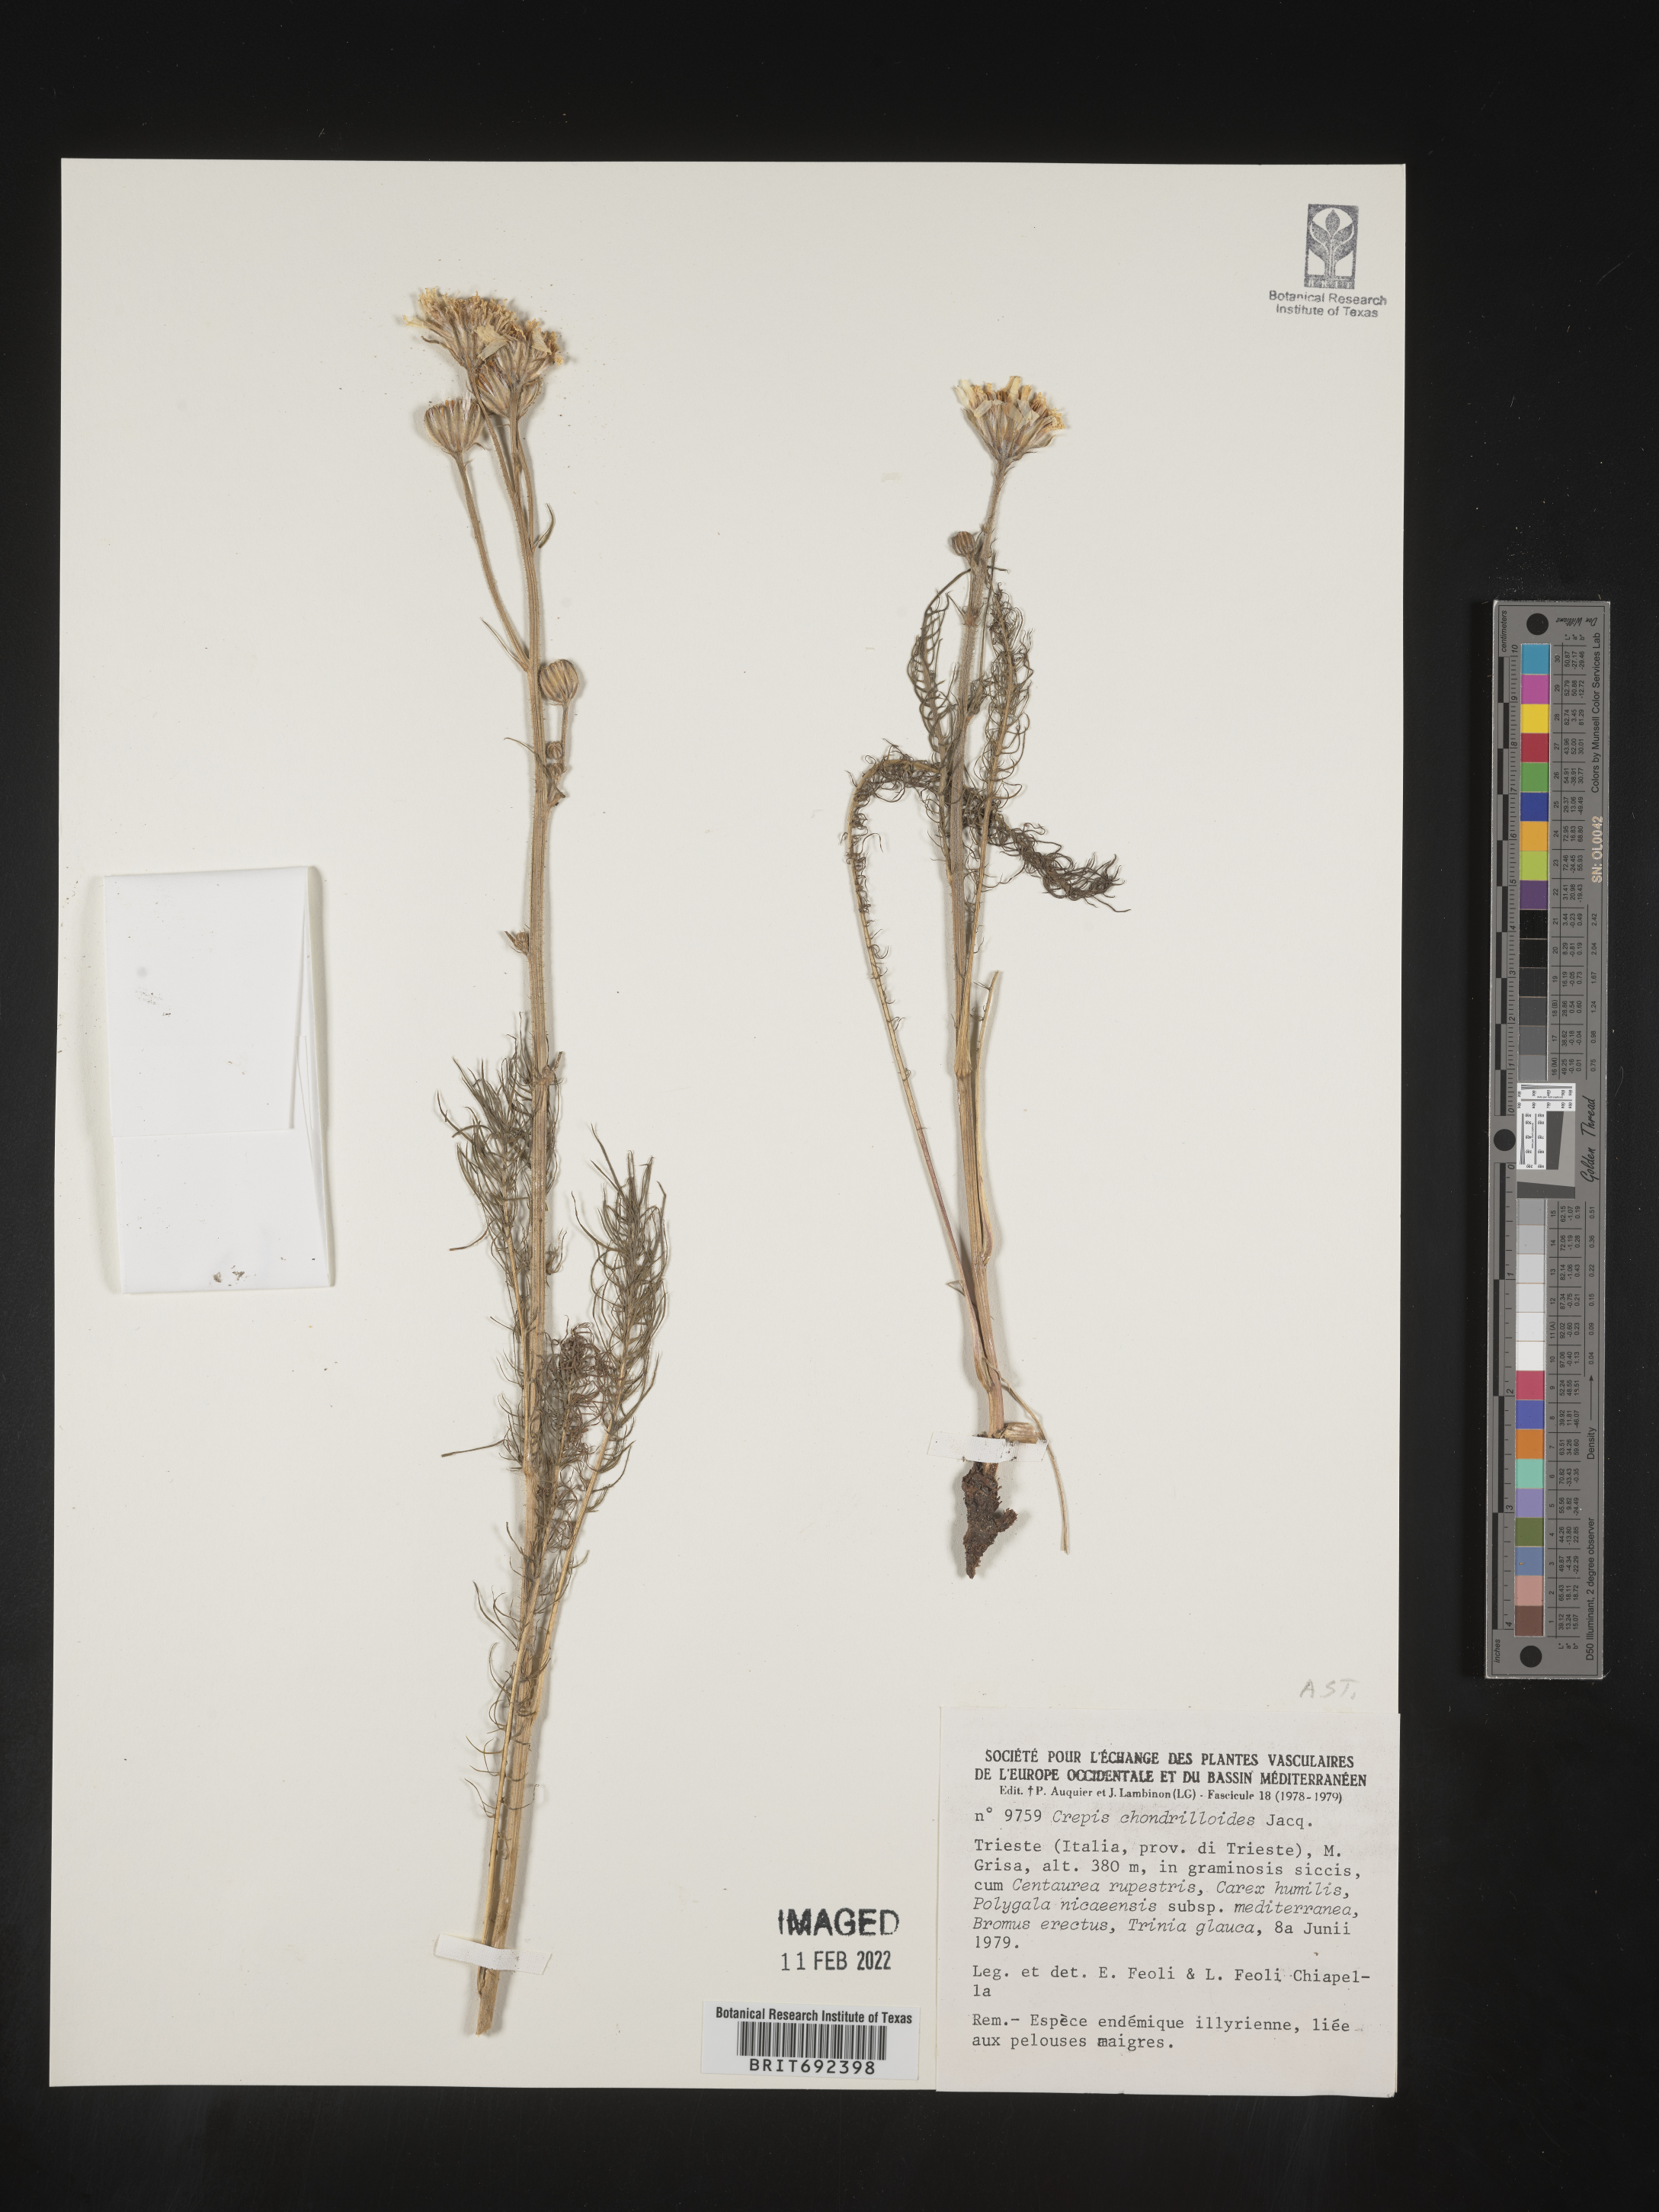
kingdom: Plantae
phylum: Tracheophyta
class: Magnoliopsida
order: Asterales
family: Asteraceae
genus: Crepis
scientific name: Crepis
